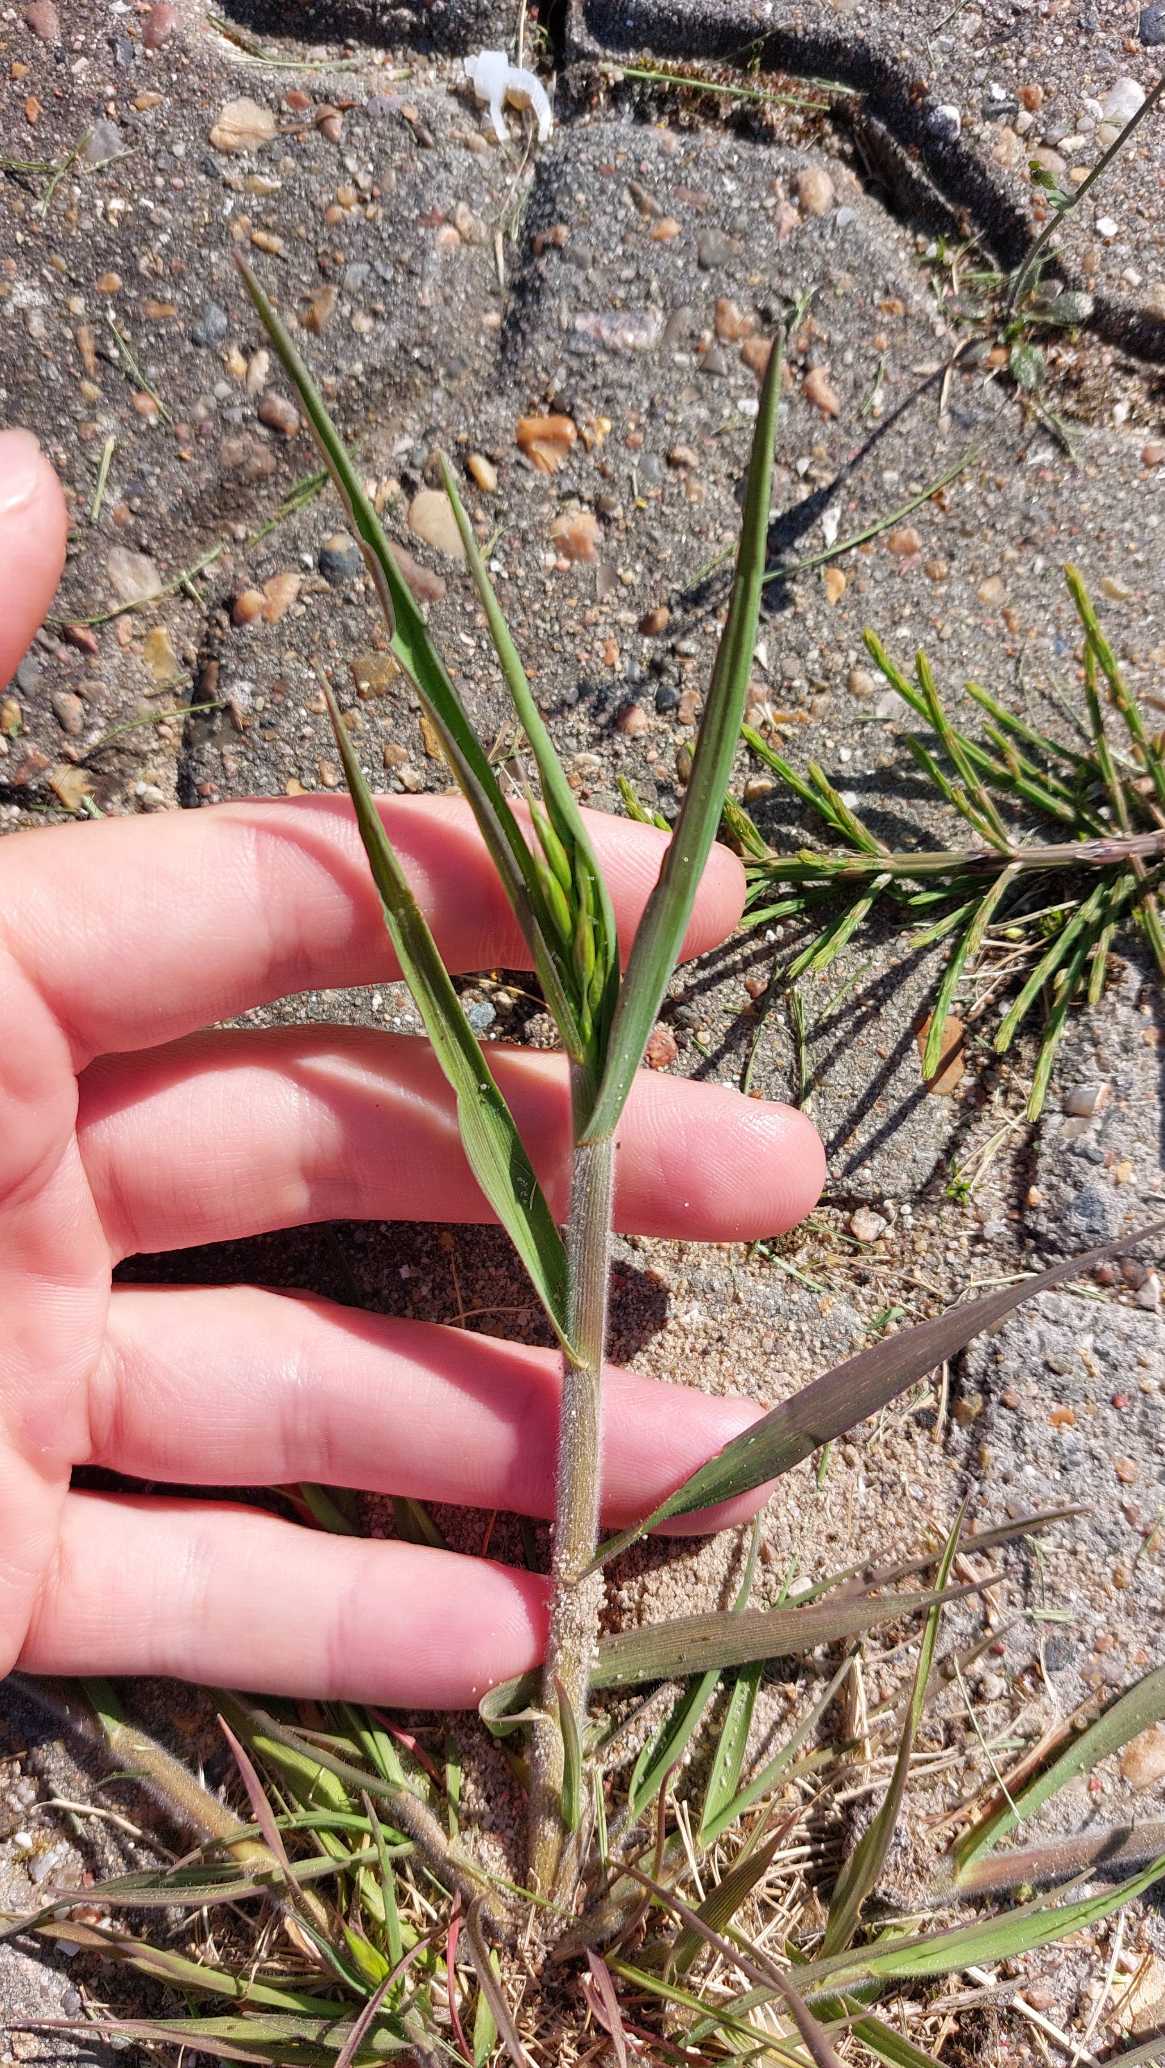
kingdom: Plantae
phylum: Tracheophyta
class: Liliopsida
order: Poales
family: Poaceae
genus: Bromus
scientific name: Bromus hordeaceus
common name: Blød hejre
